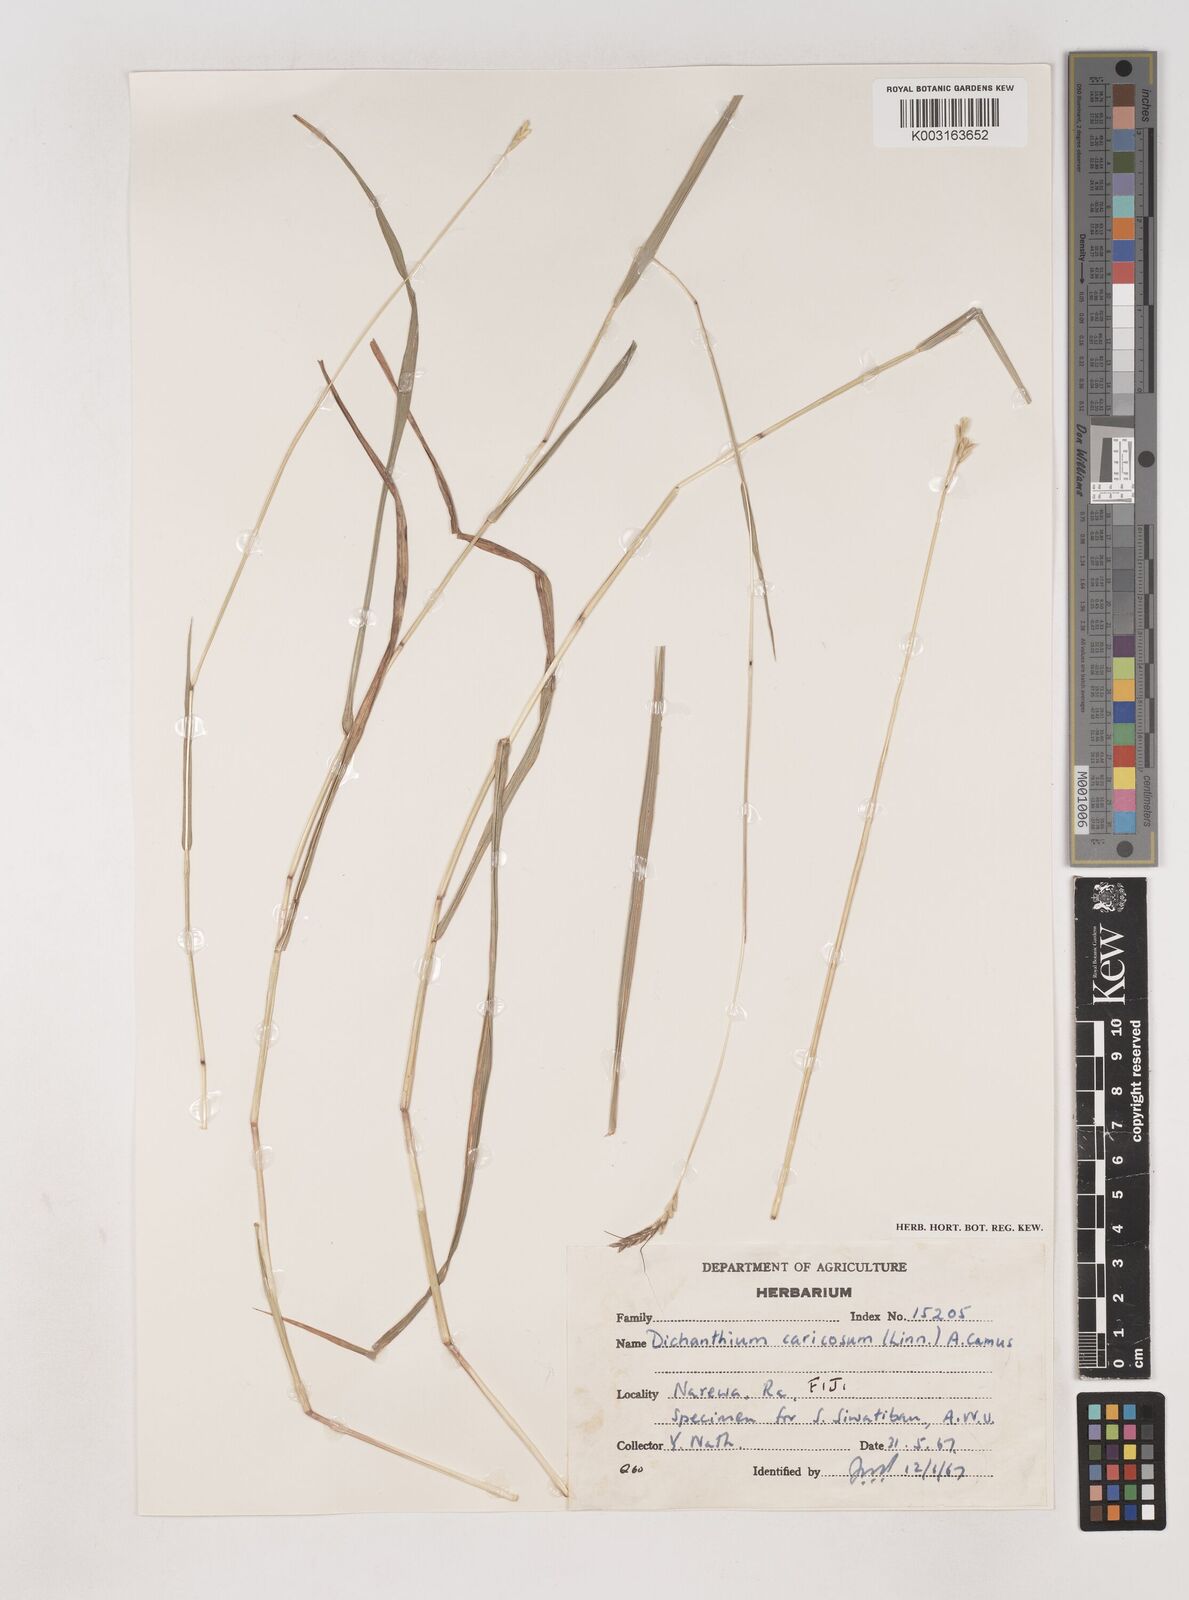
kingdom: Plantae
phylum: Tracheophyta
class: Liliopsida
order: Poales
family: Poaceae
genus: Dichanthium
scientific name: Dichanthium caricosum
